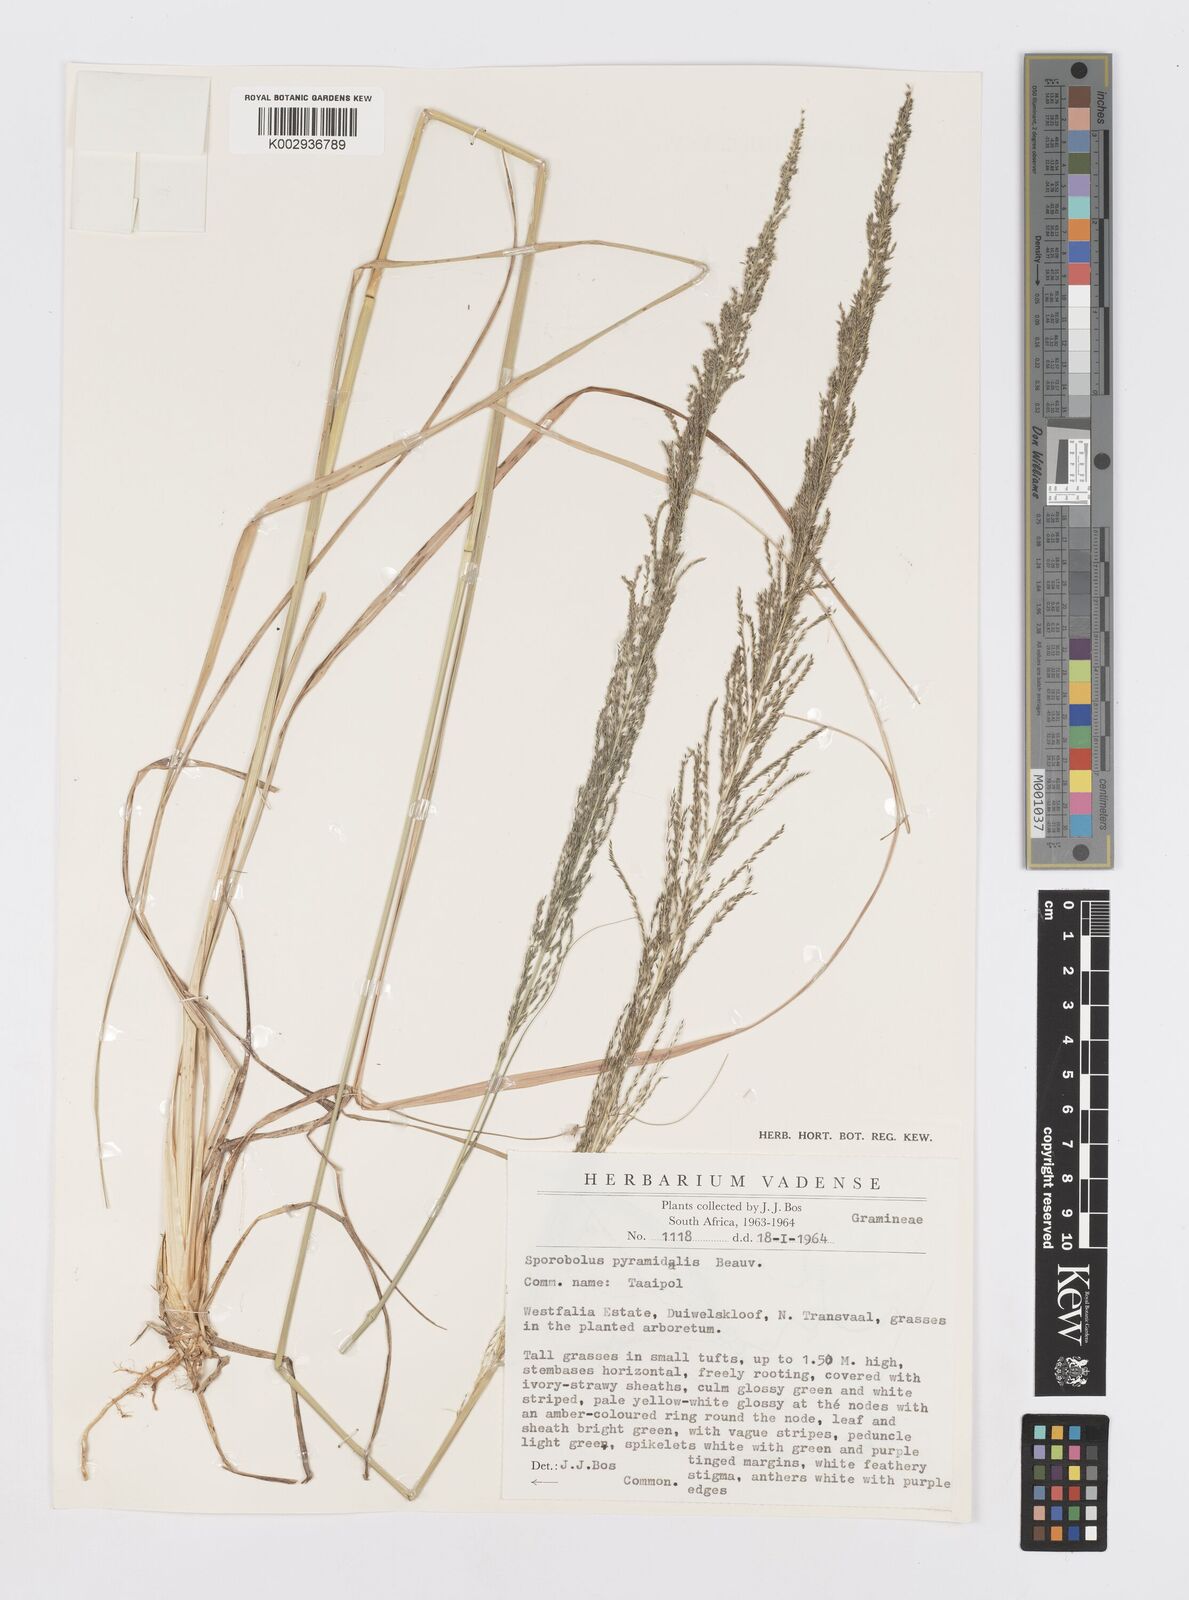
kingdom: Plantae
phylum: Tracheophyta
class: Liliopsida
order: Poales
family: Poaceae
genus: Sporobolus
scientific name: Sporobolus pyramidalis
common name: West indian dropseed
